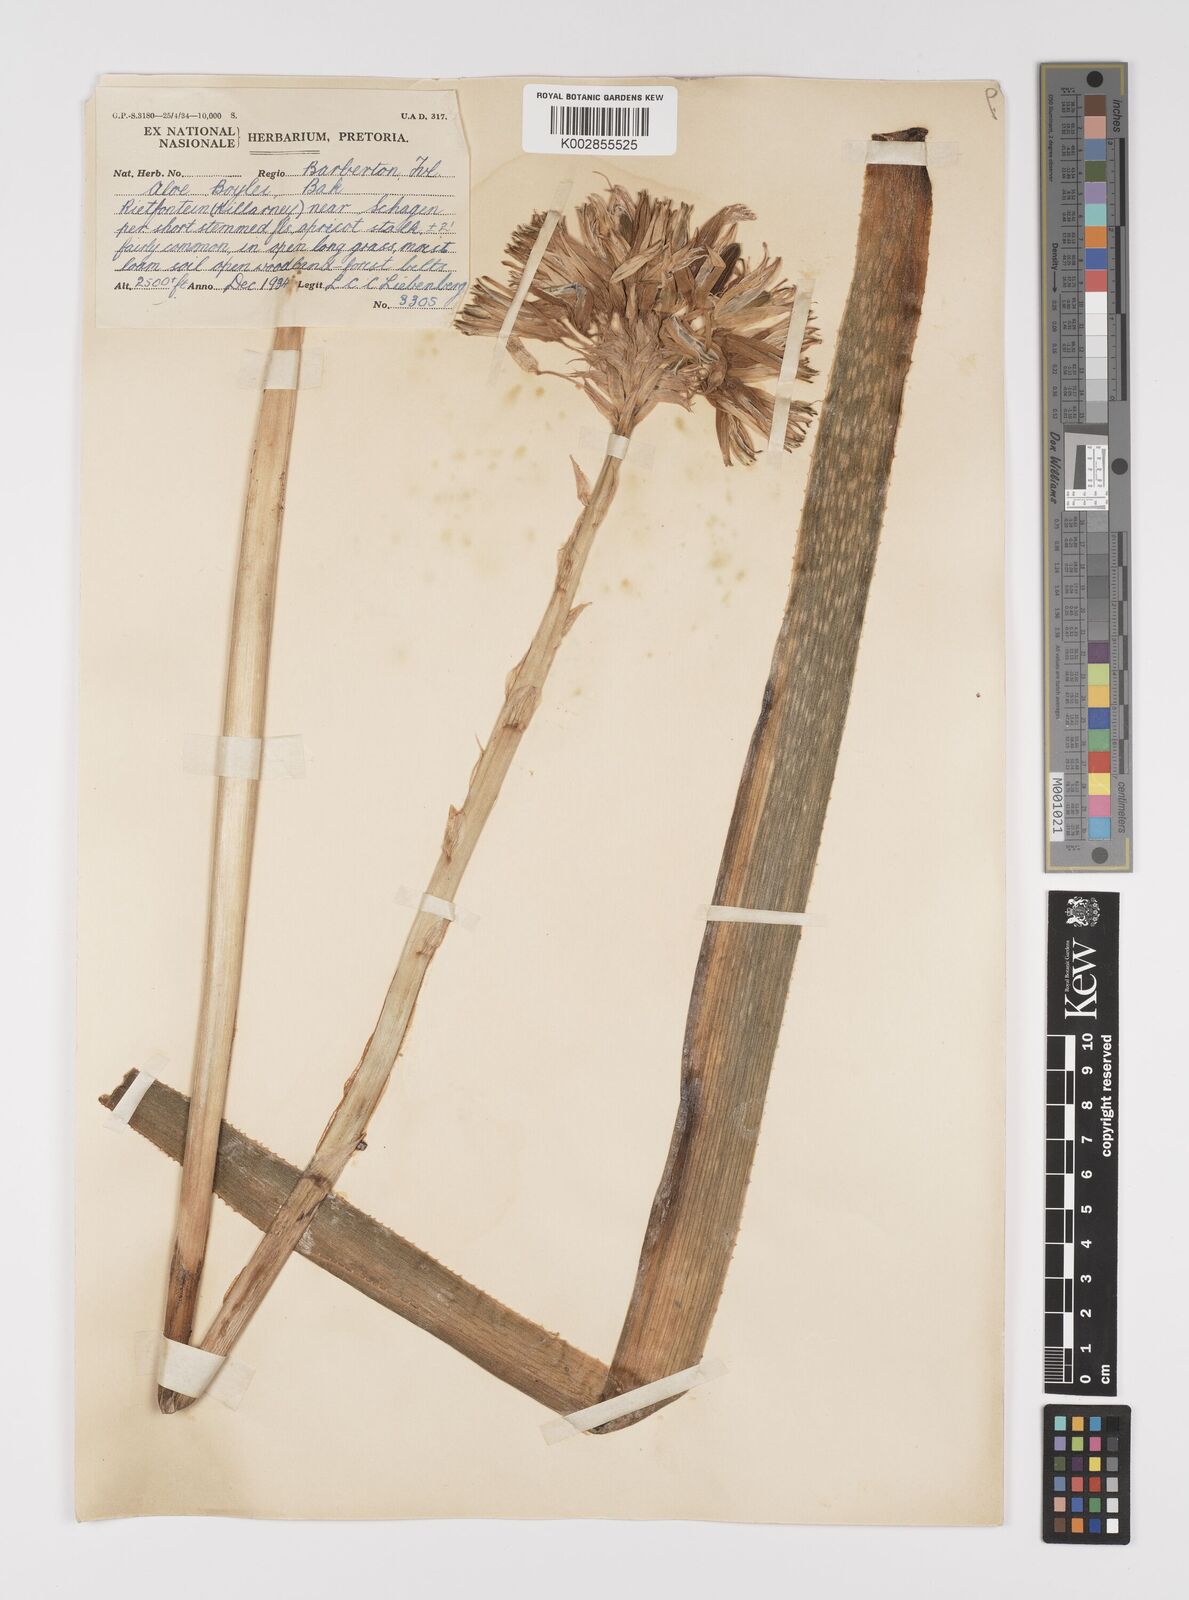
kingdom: Plantae
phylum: Tracheophyta
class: Liliopsida
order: Asparagales
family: Asphodelaceae
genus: Aloe
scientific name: Aloe boylei
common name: Broad-leaved grass aloe
